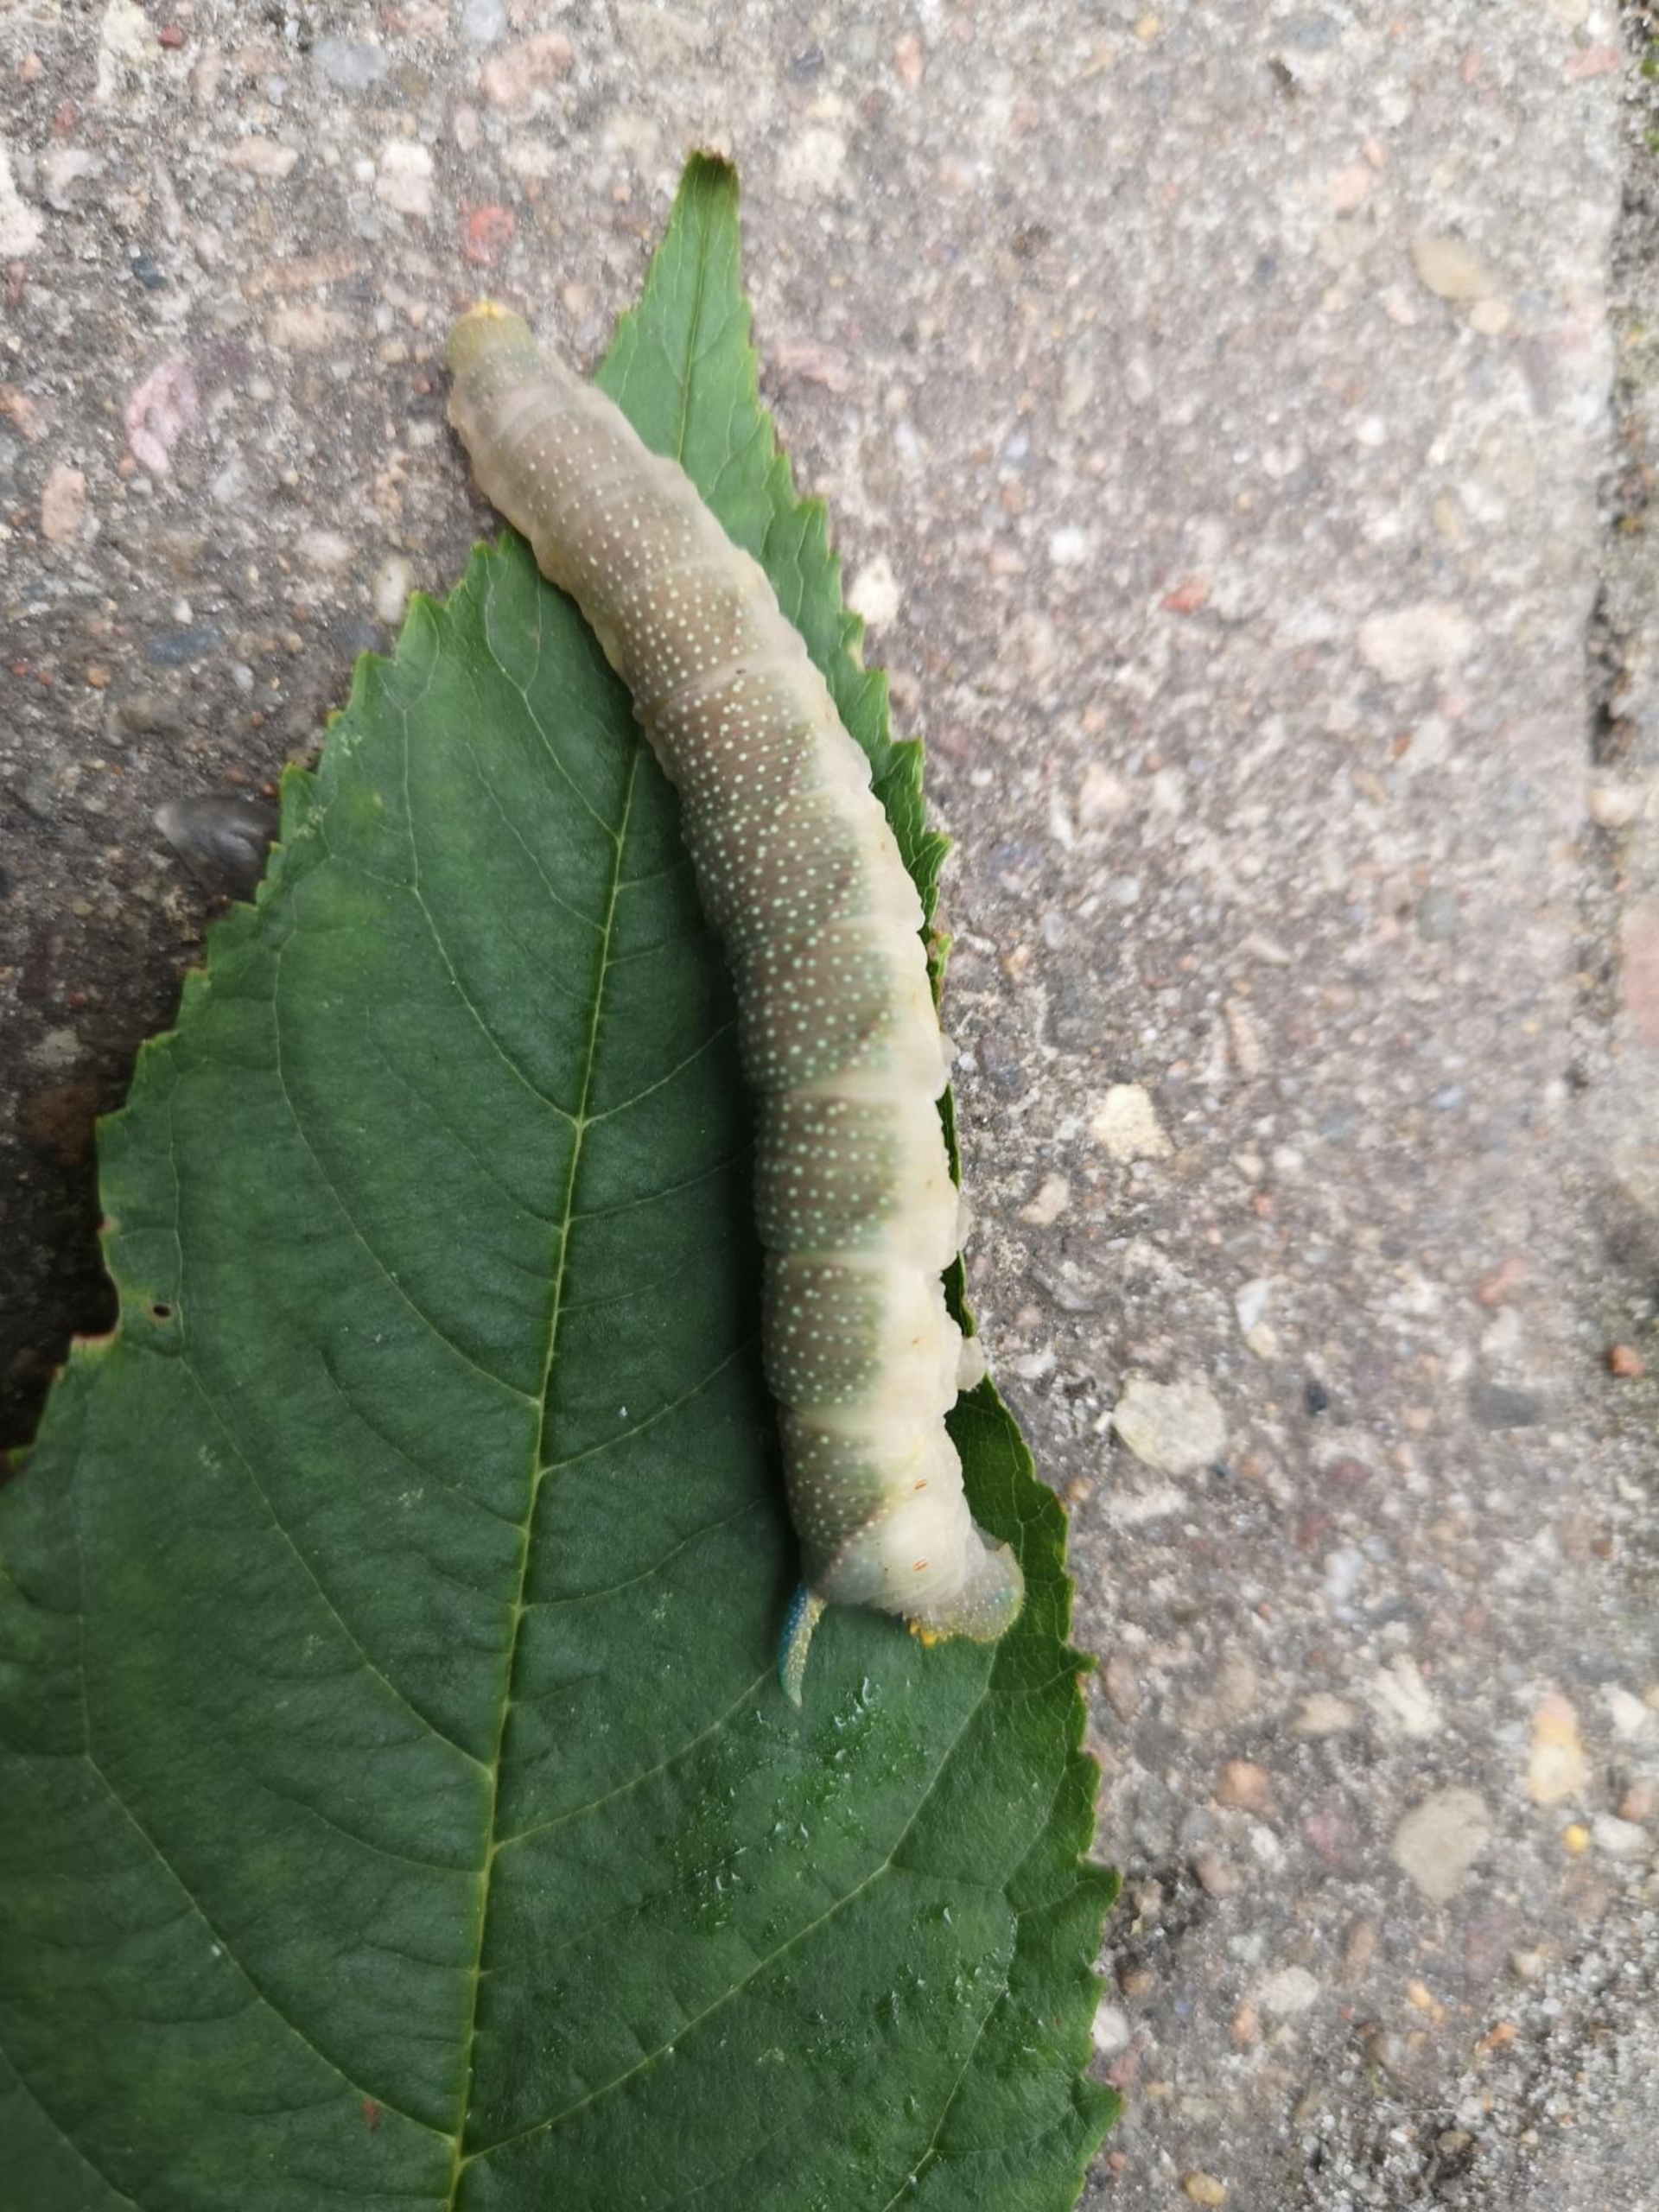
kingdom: Animalia
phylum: Arthropoda
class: Insecta
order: Lepidoptera
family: Sphingidae
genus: Mimas
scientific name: Mimas tiliae
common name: Lindesværmer
